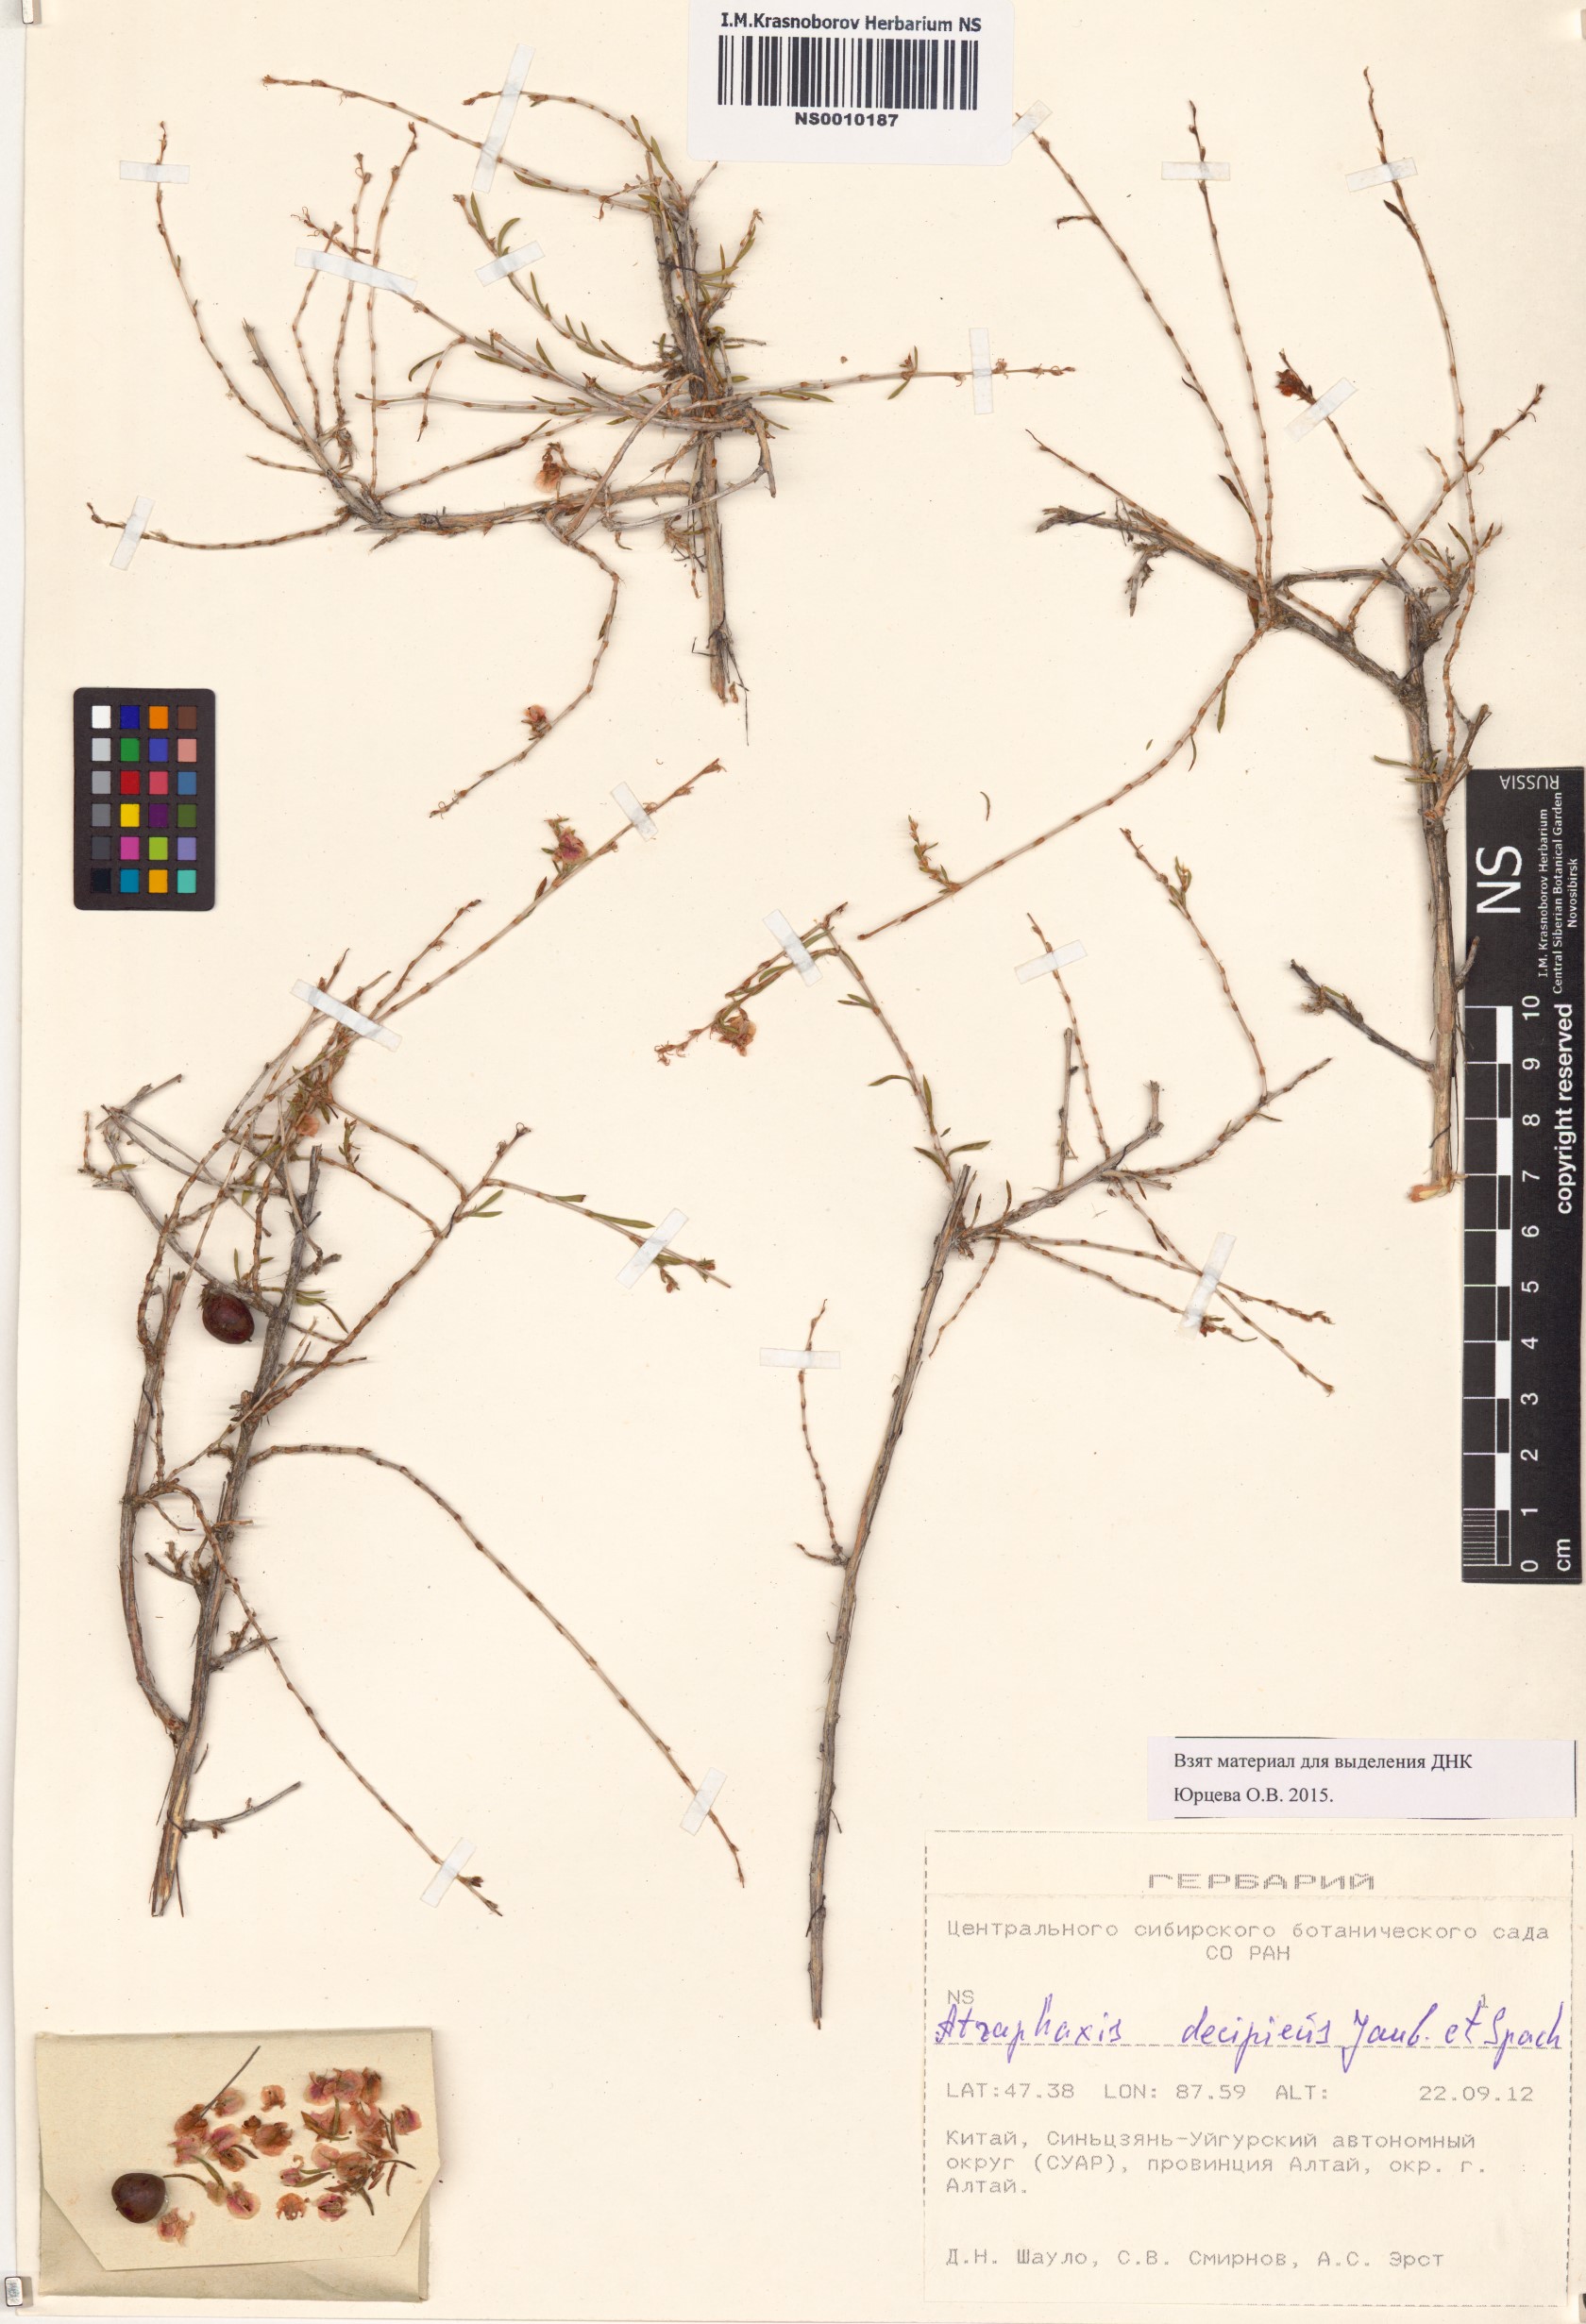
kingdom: Plantae
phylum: Tracheophyta
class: Magnoliopsida
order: Caryophyllales
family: Polygonaceae
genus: Atraphaxis
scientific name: Atraphaxis decipiens
